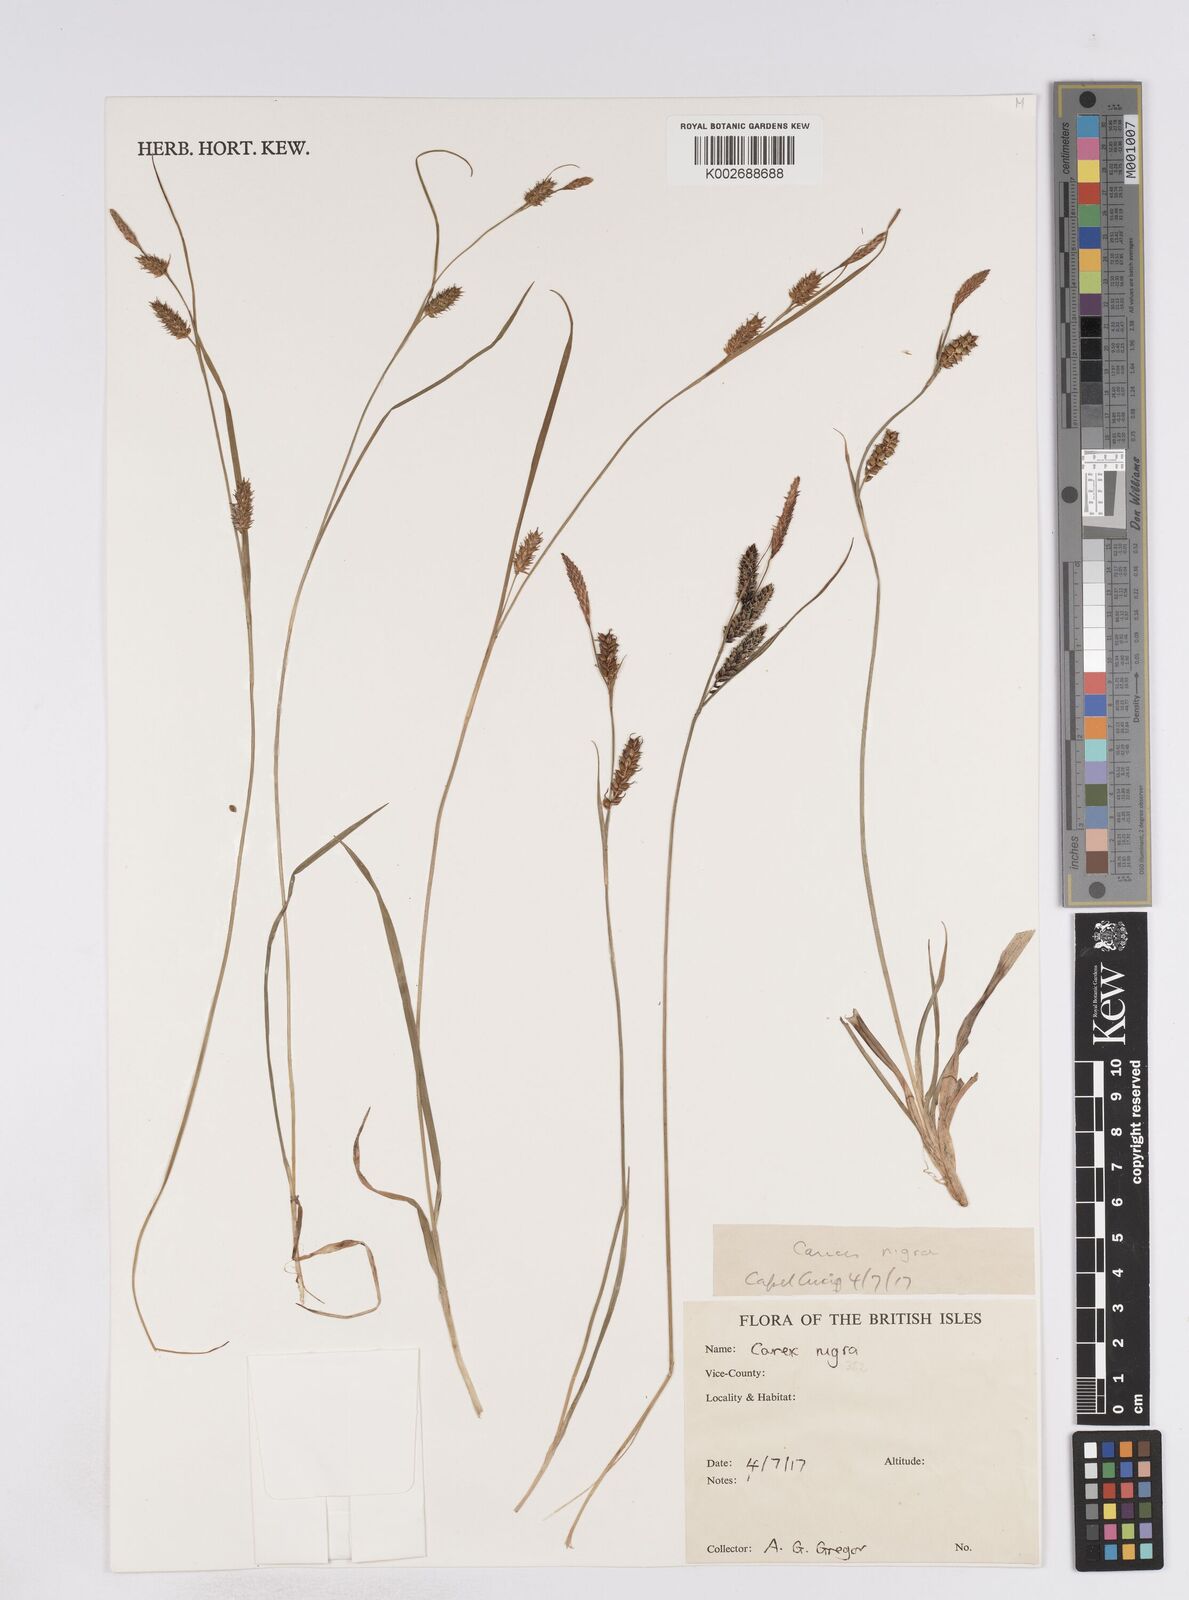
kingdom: Plantae
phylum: Tracheophyta
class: Liliopsida
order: Poales
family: Cyperaceae
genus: Carex
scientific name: Carex parviflora
